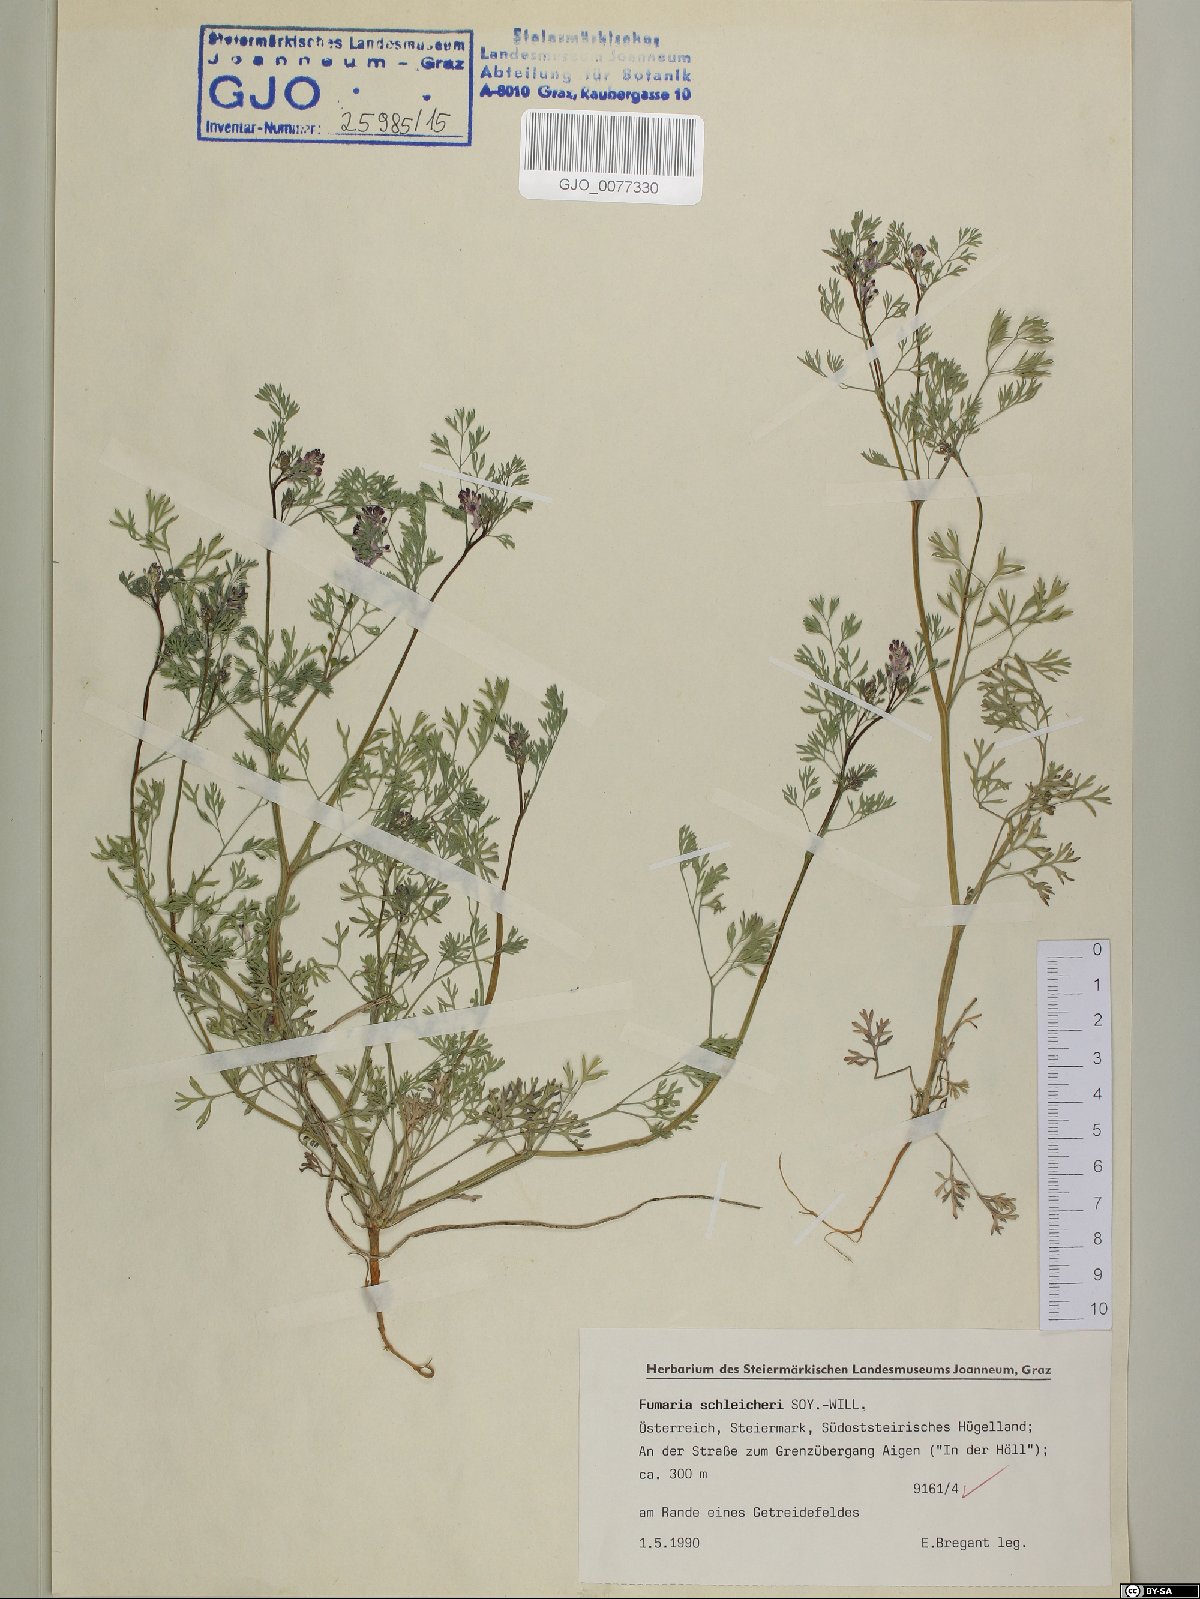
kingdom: Plantae
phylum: Tracheophyta
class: Magnoliopsida
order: Ranunculales
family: Papaveraceae
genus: Fumaria
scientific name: Fumaria schleicheri
